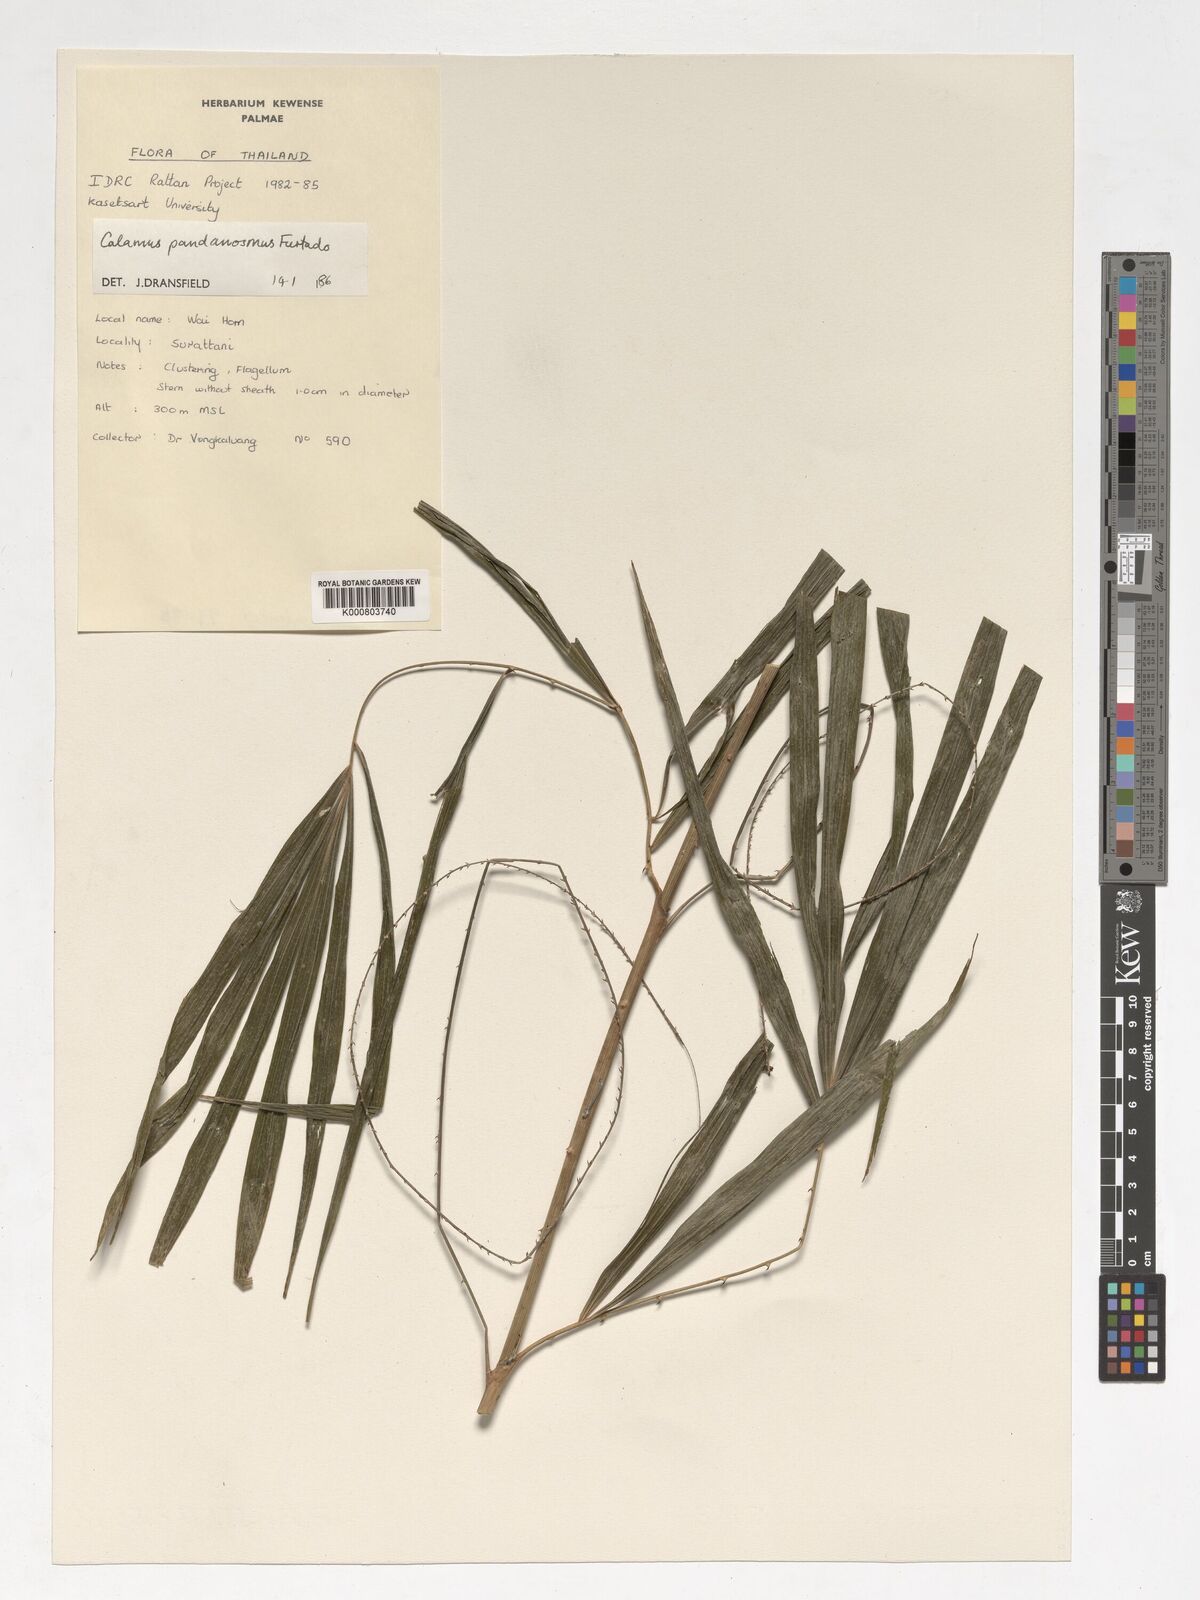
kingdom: Plantae
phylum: Tracheophyta
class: Liliopsida
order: Arecales
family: Arecaceae
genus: Calamus
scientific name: Calamus pandanosmus
